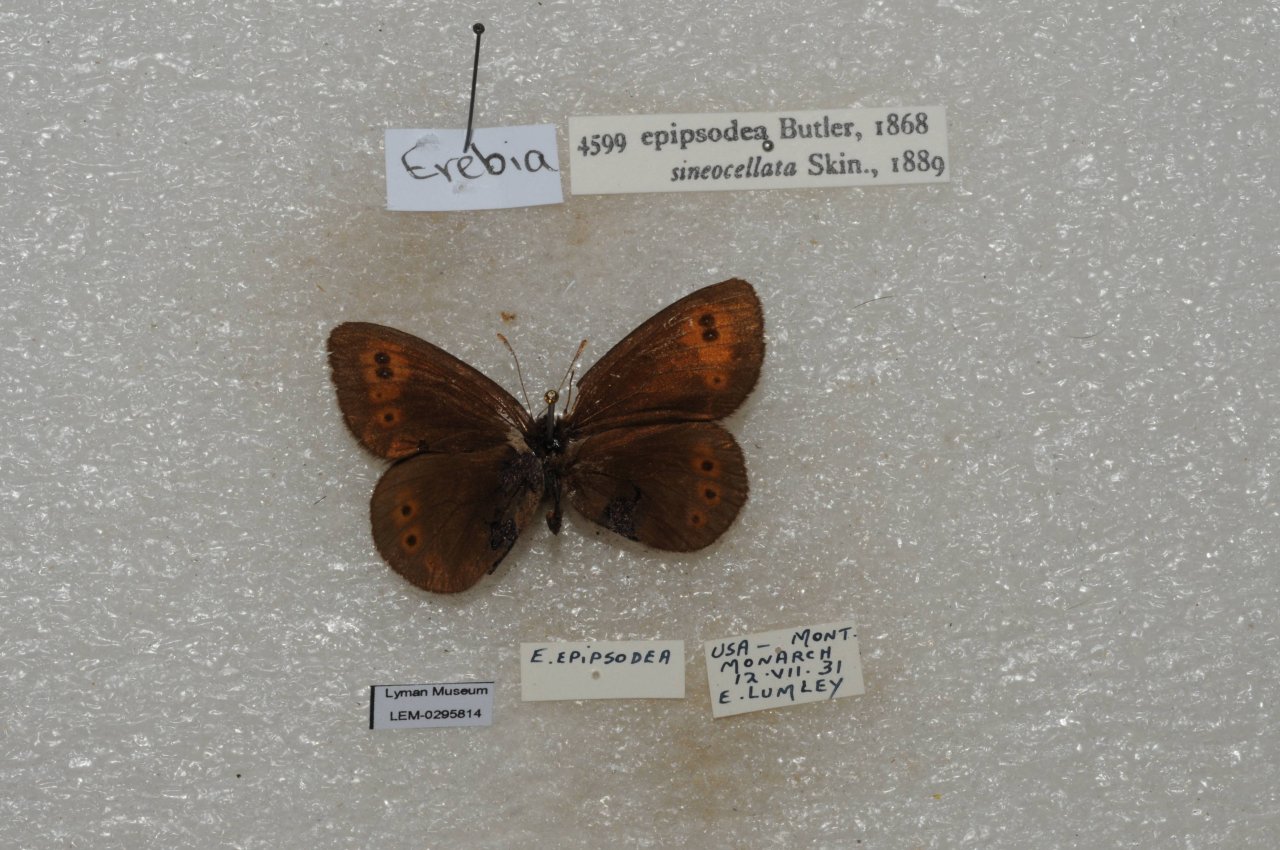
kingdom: Animalia
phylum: Arthropoda
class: Insecta
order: Lepidoptera
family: Nymphalidae
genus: Erebia
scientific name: Erebia epipsodea
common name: Common Alpine
